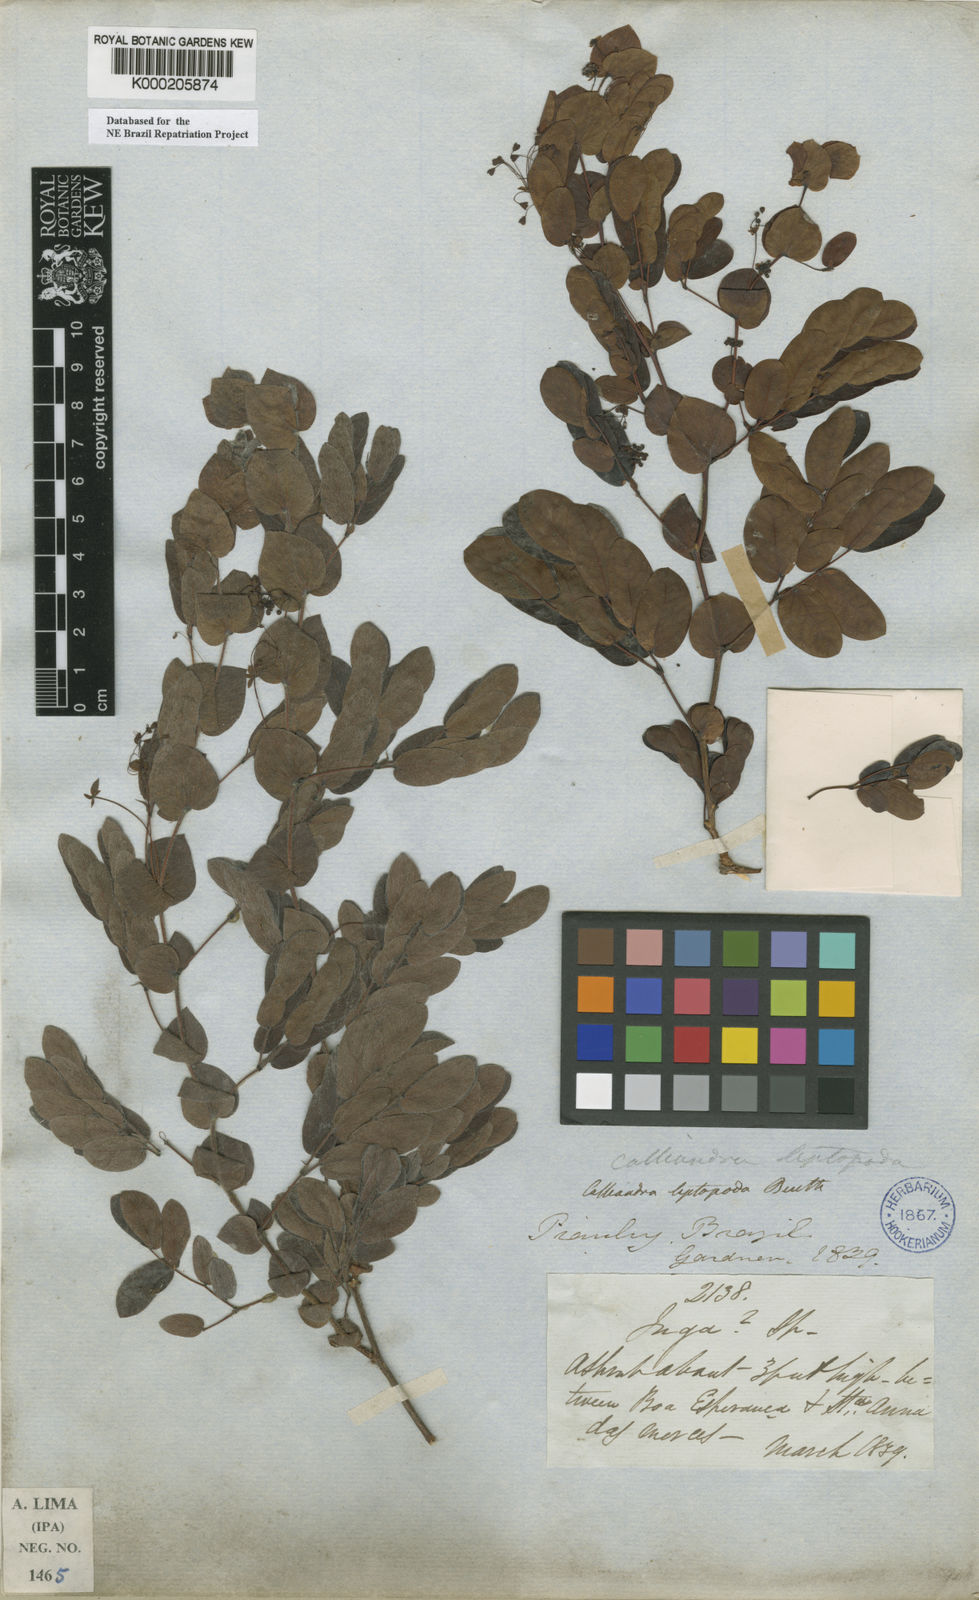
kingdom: Plantae
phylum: Tracheophyta
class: Magnoliopsida
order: Fabales
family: Fabaceae
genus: Calliandra
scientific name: Calliandra leptopoda
